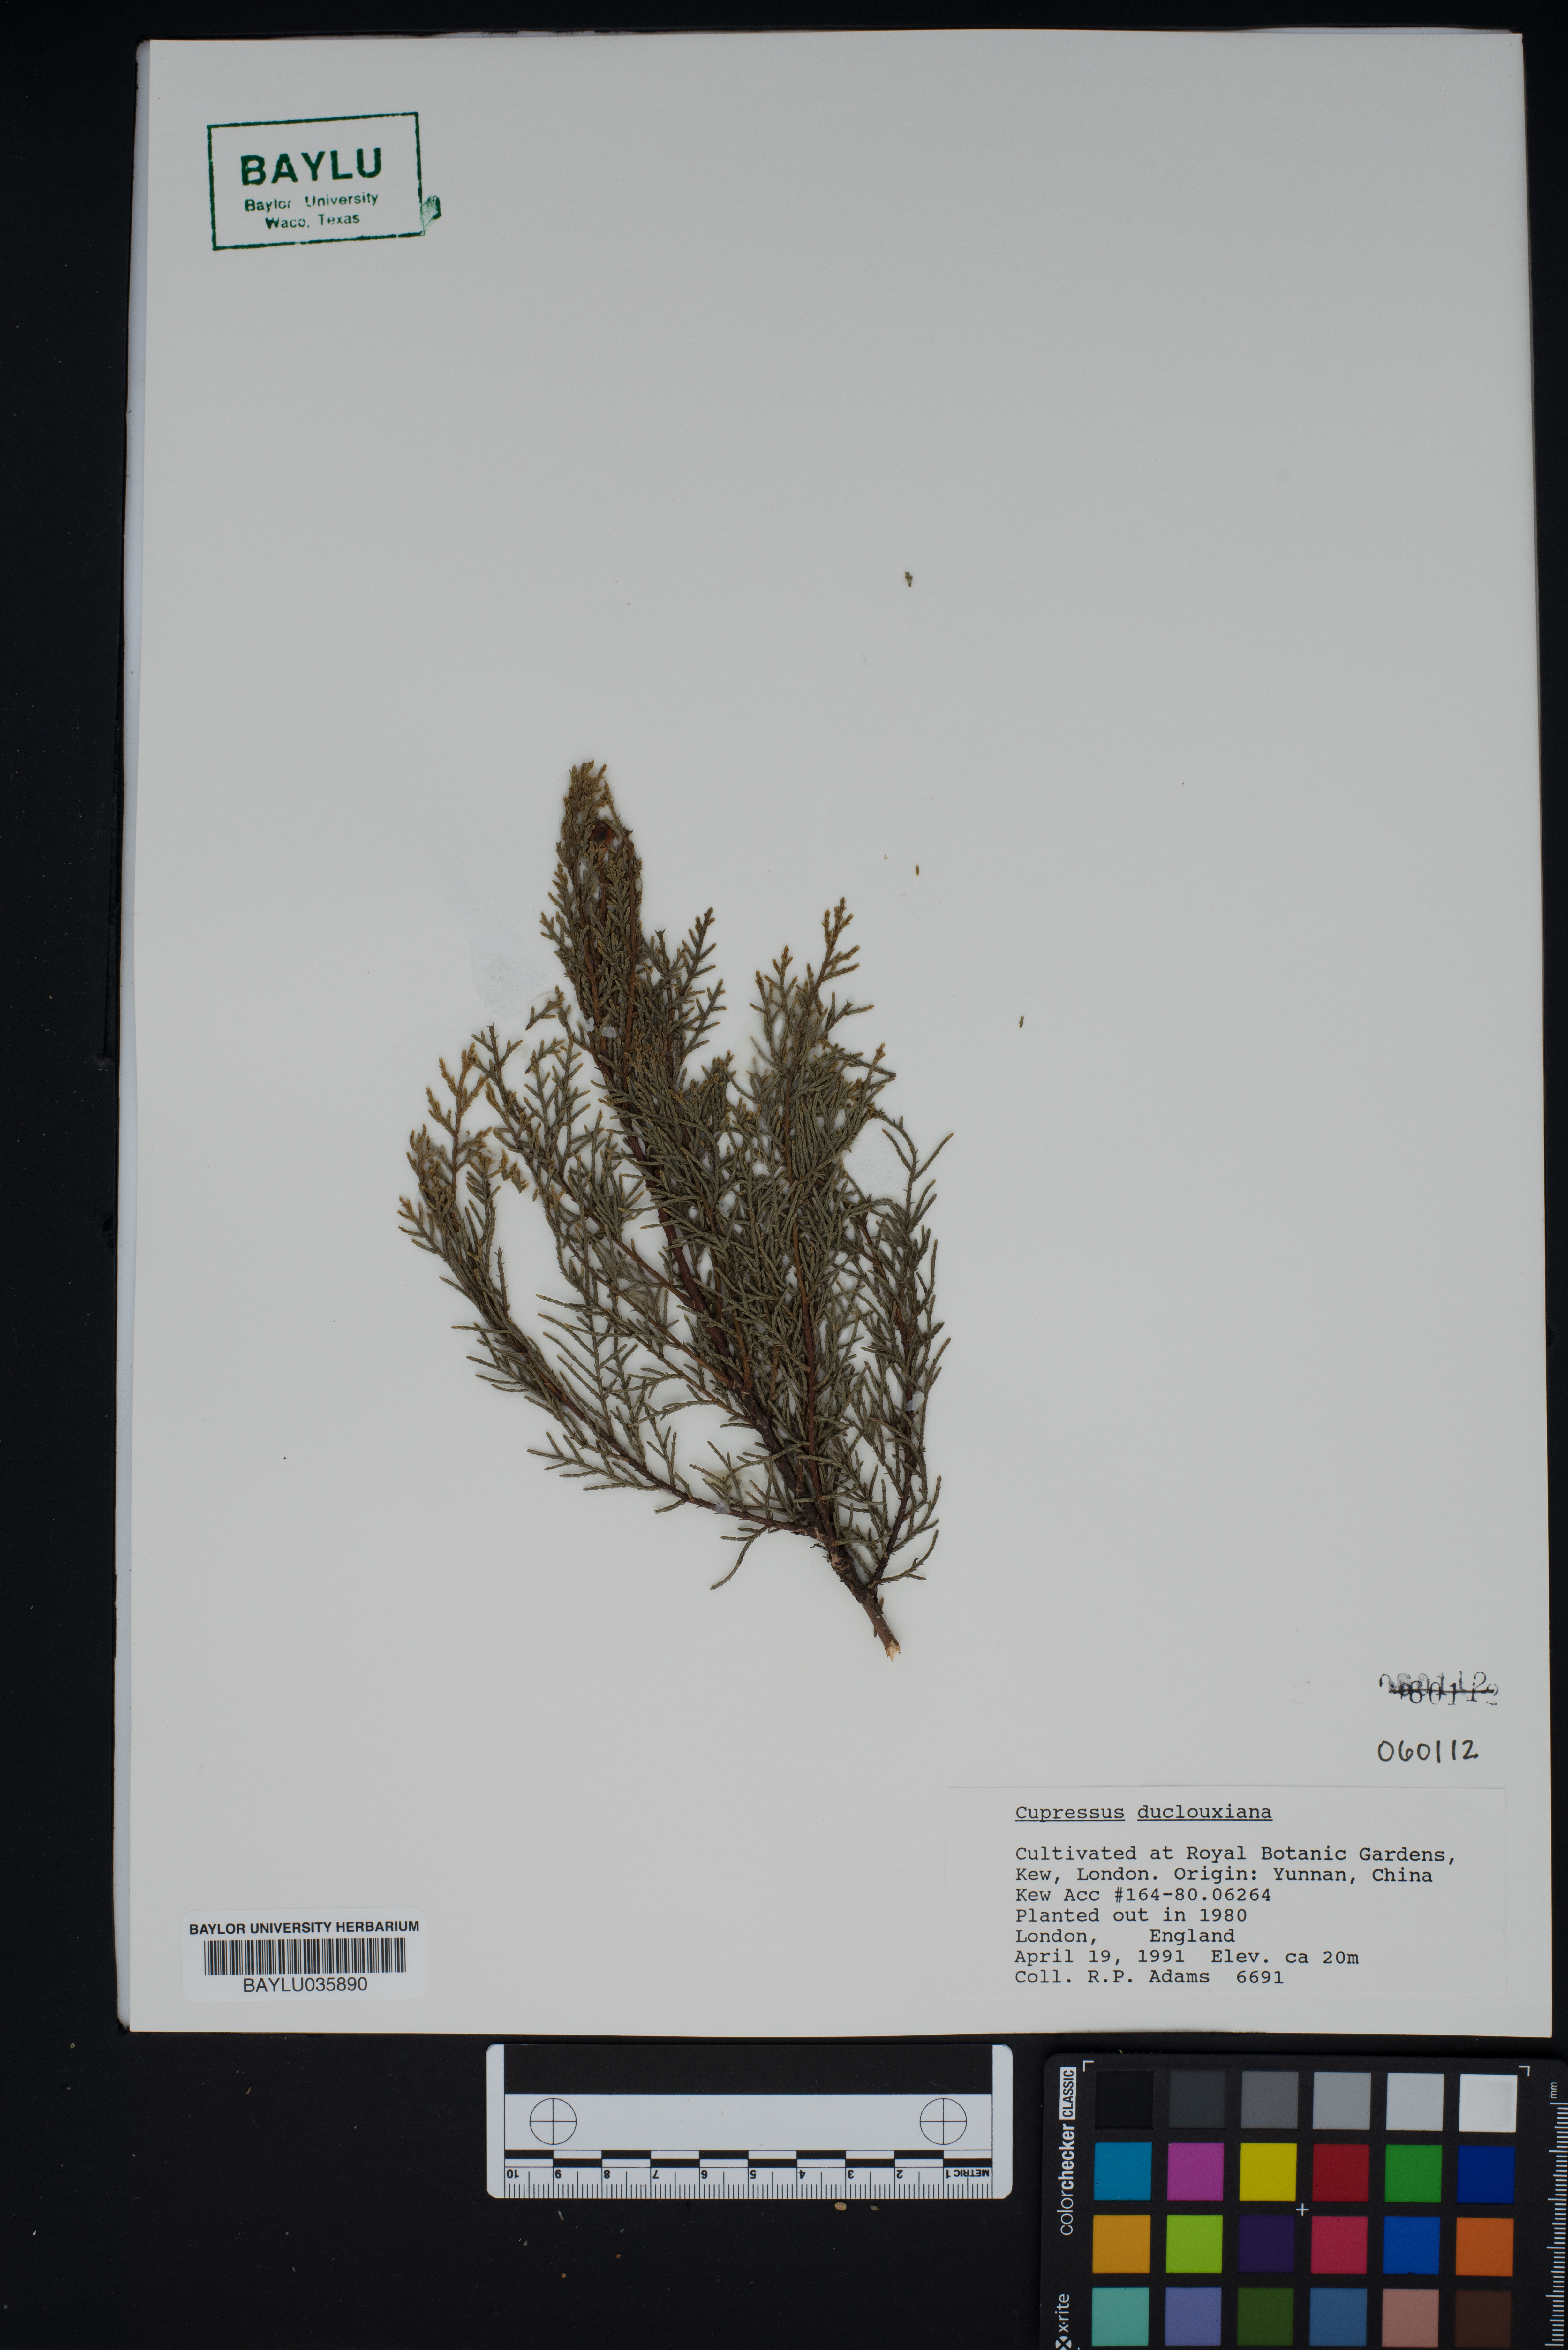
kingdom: Plantae
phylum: Tracheophyta
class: Pinopsida
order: Pinales
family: Cupressaceae
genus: Cupressus
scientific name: Cupressus duclouxiana
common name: Chinese cypress
